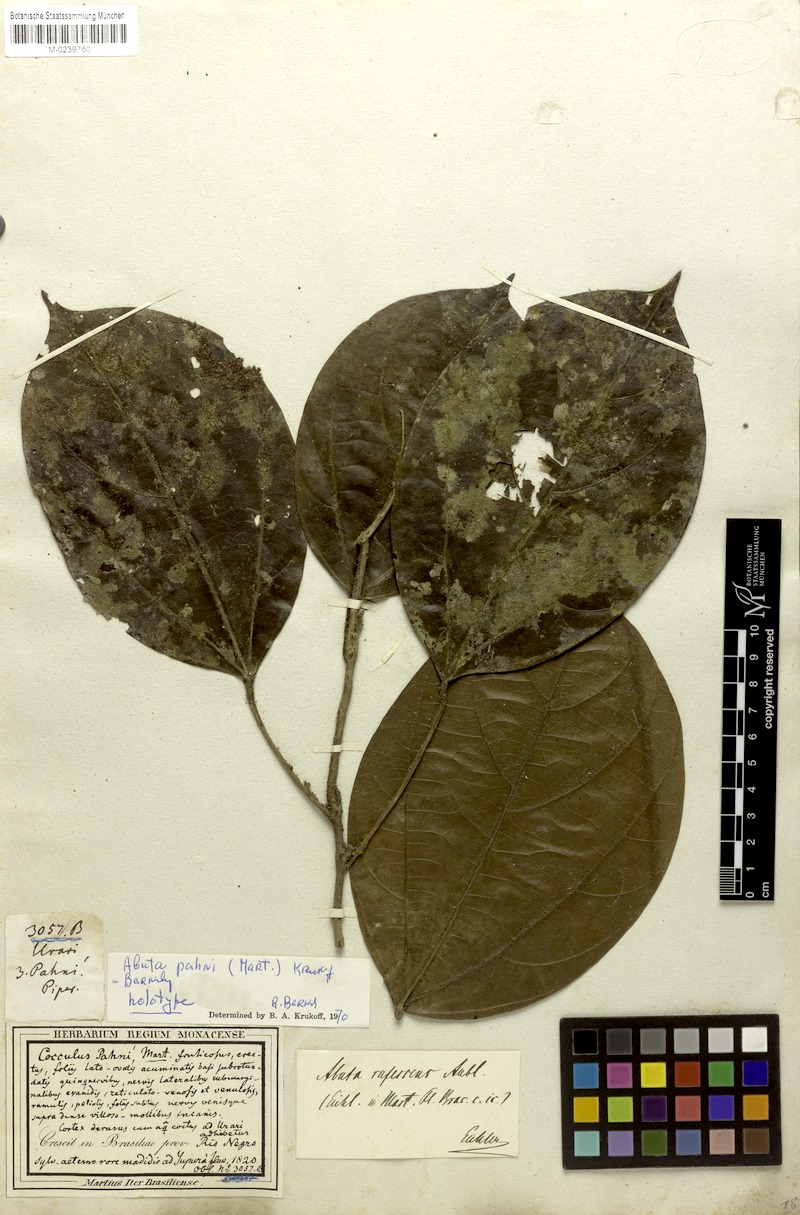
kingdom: Plantae
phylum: Tracheophyta
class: Magnoliopsida
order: Ranunculales
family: Menispermaceae
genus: Abuta
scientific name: Abuta pahni
